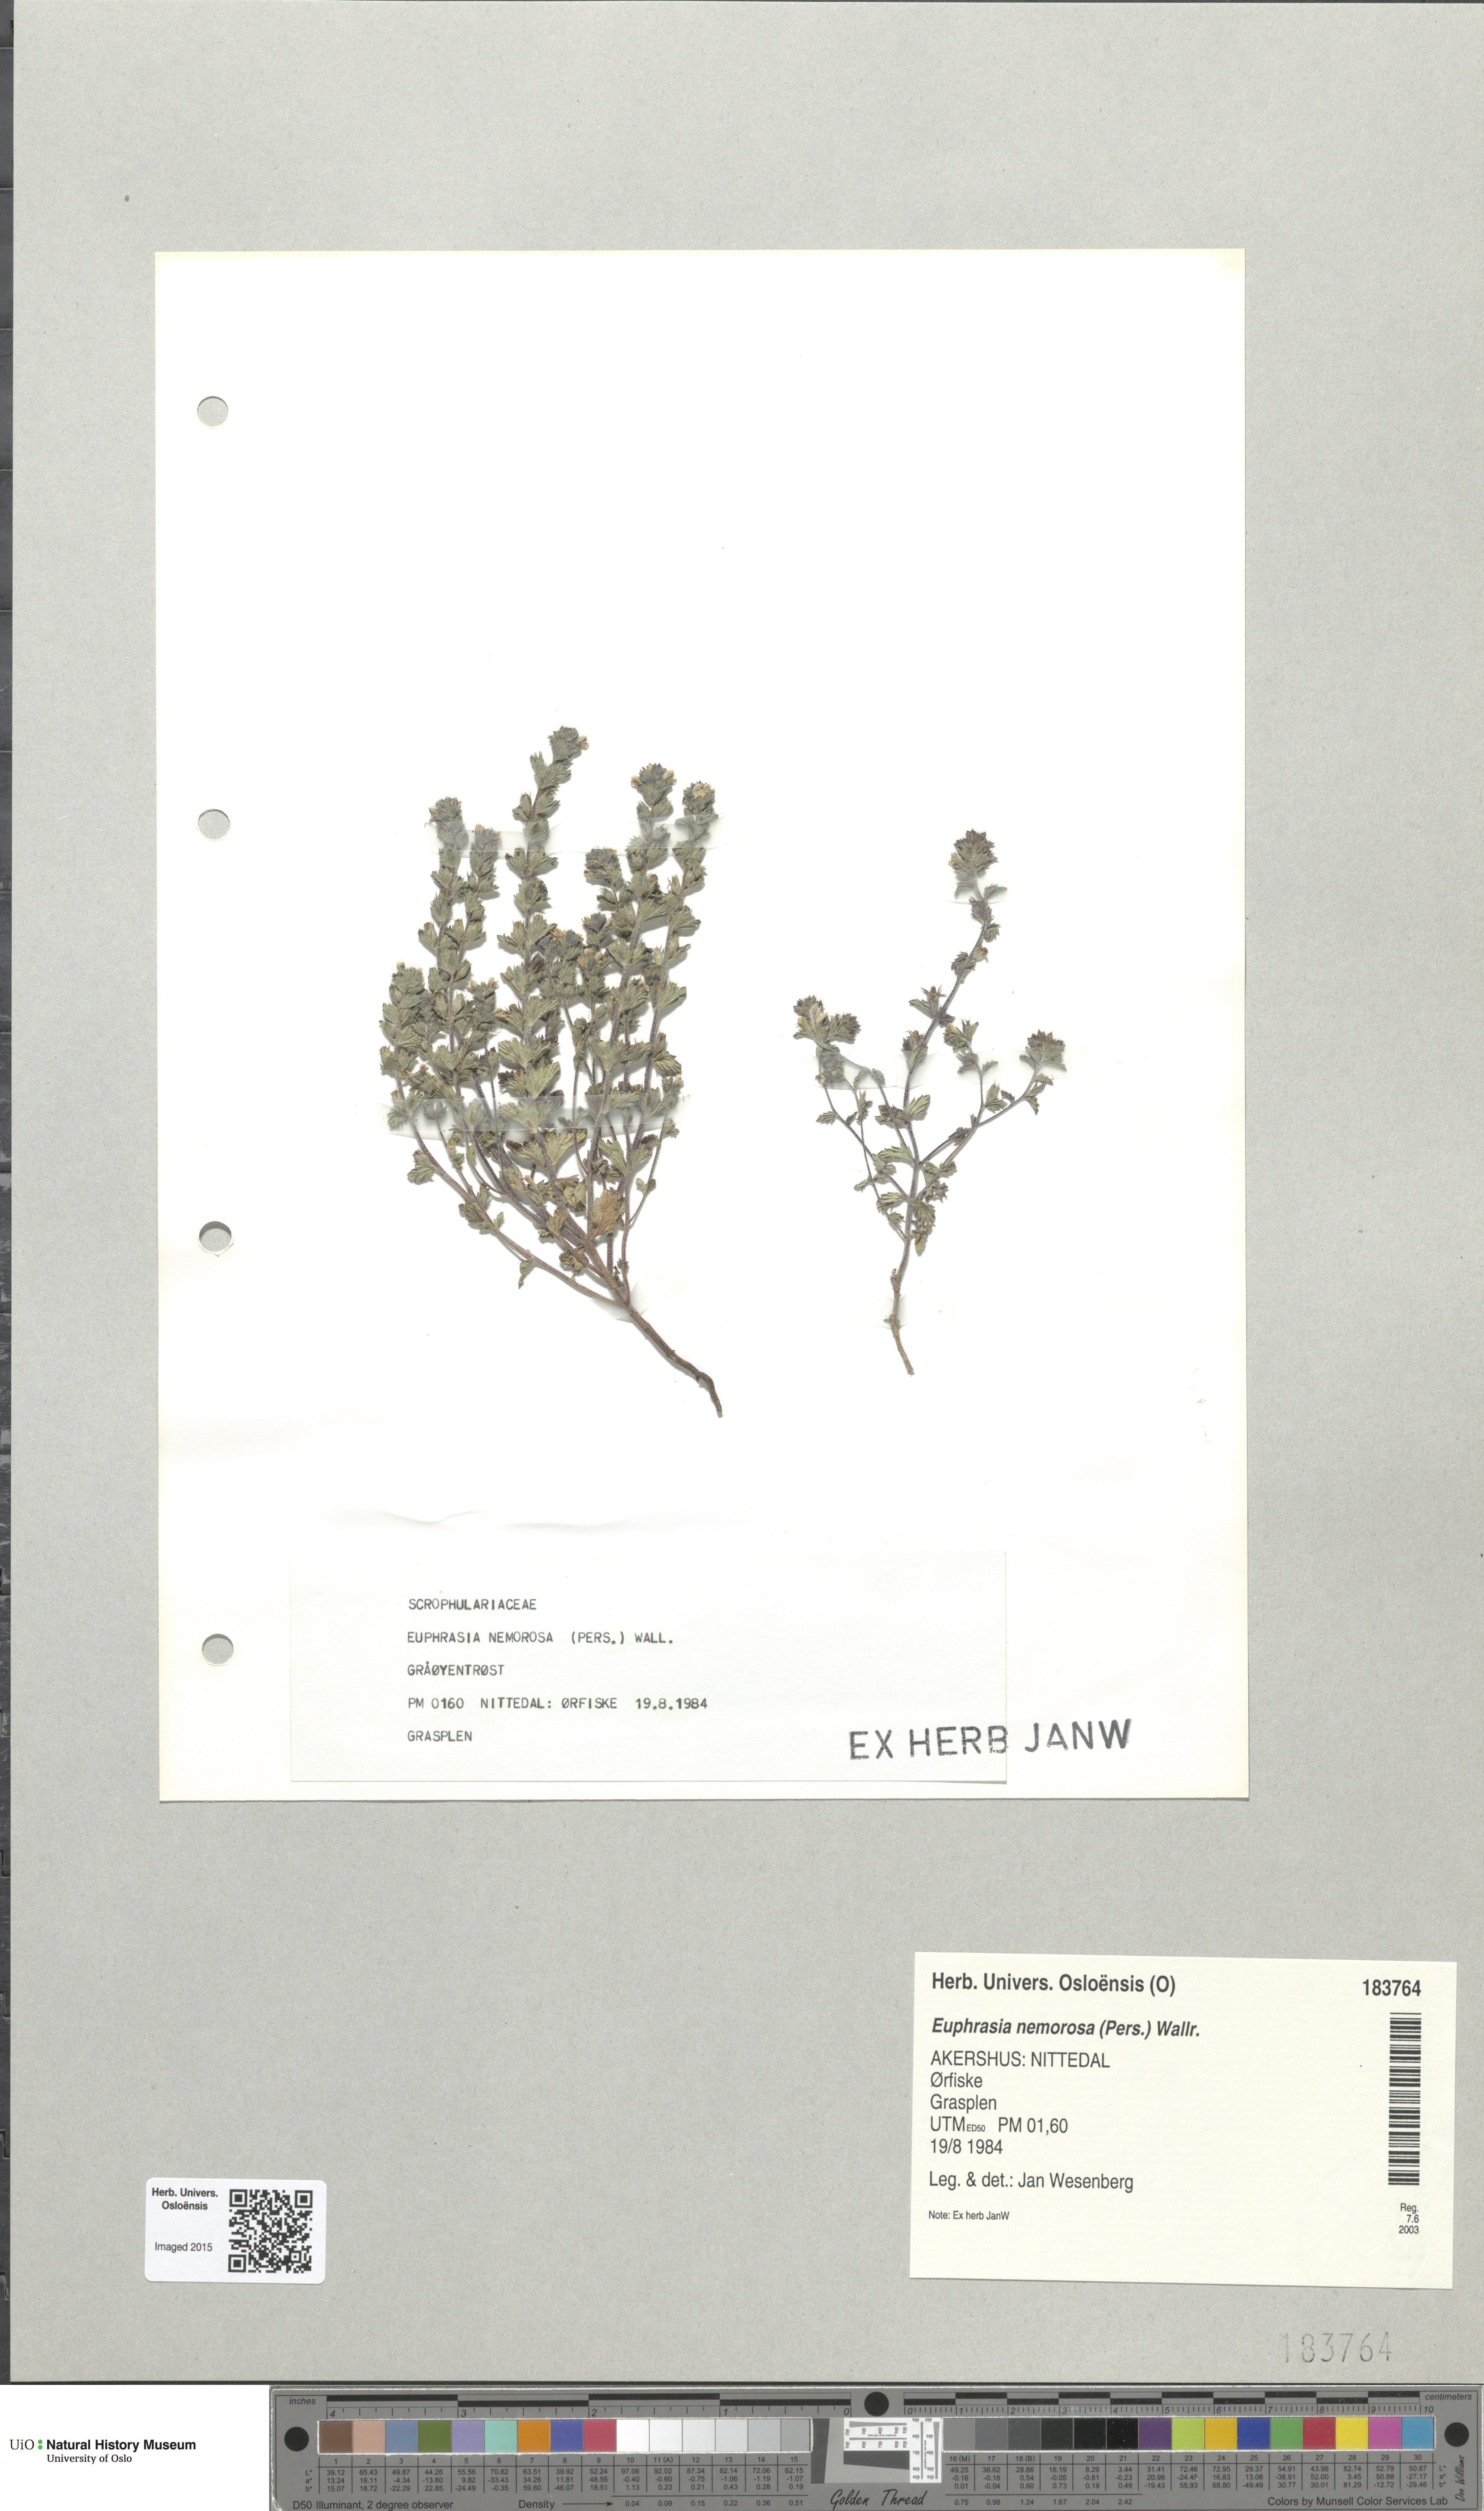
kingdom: Plantae
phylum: Tracheophyta
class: Magnoliopsida
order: Lamiales
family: Orobanchaceae
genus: Euphrasia
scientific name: Euphrasia nemorosa
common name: Common eyebright
